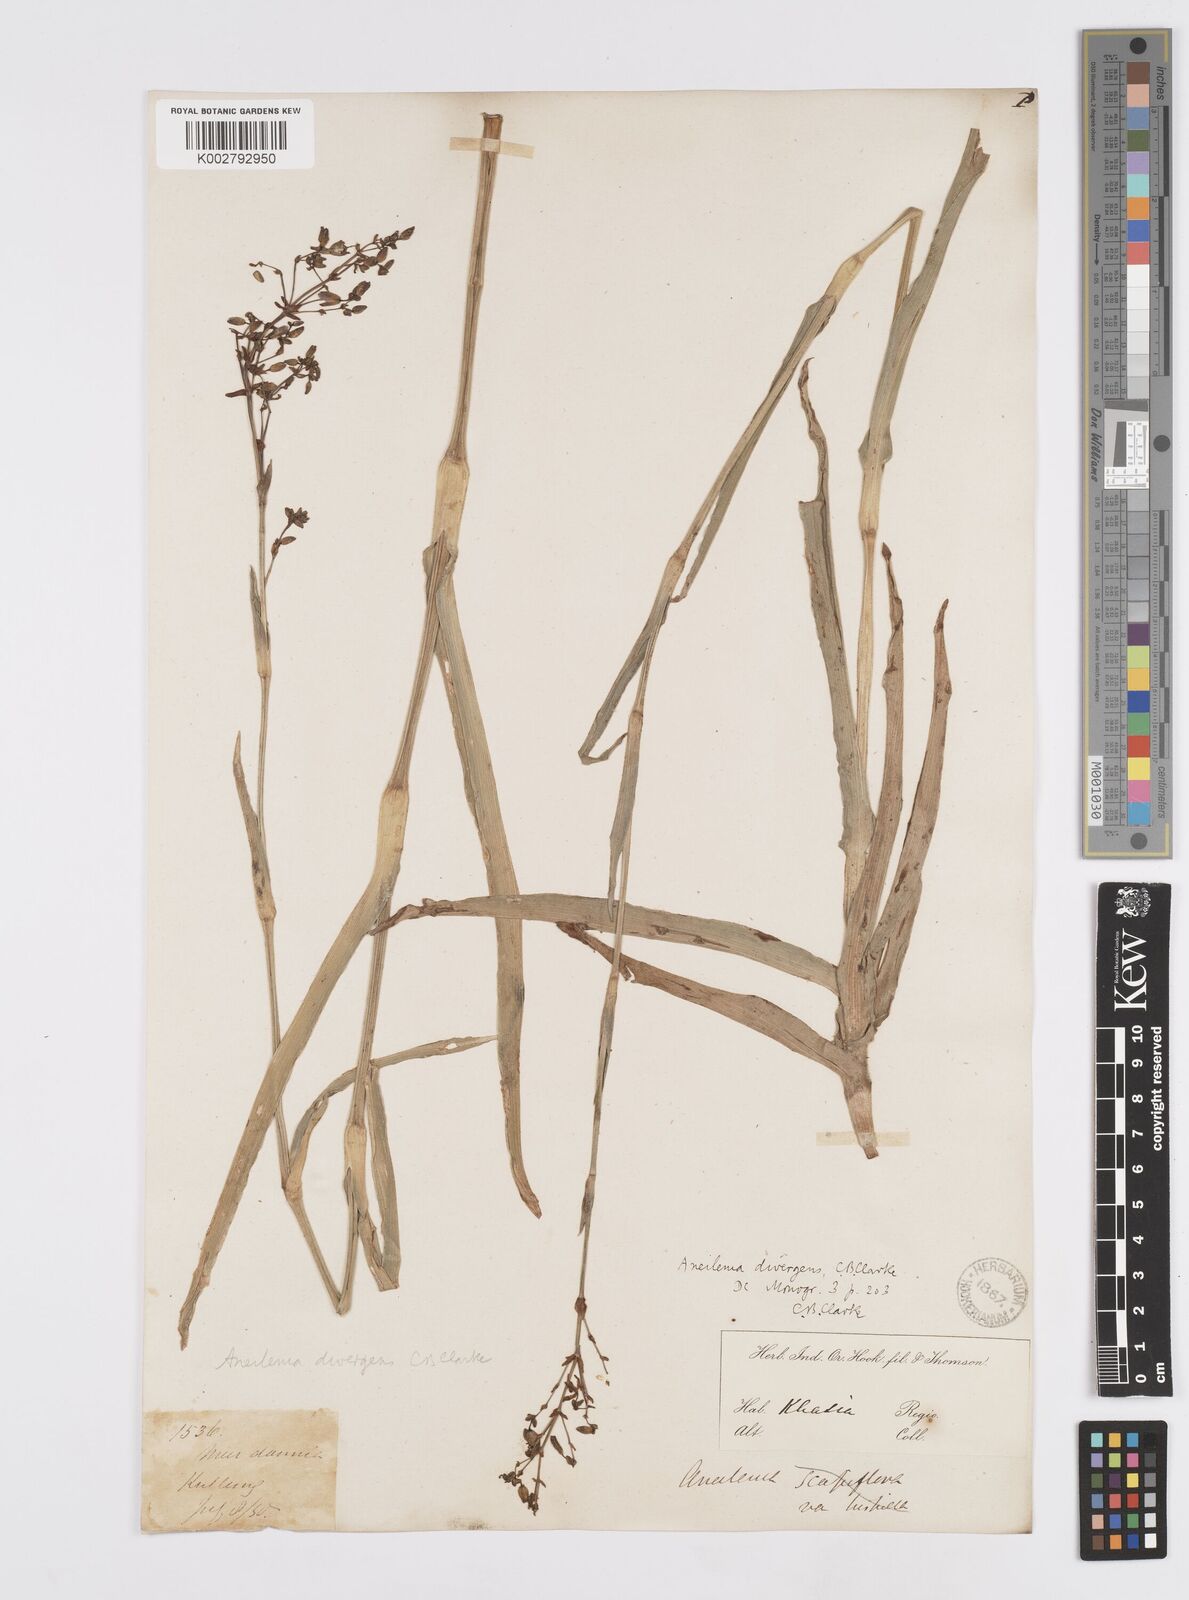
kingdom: Plantae
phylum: Tracheophyta
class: Liliopsida
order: Commelinales
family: Commelinaceae
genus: Murdannia
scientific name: Murdannia divergens
